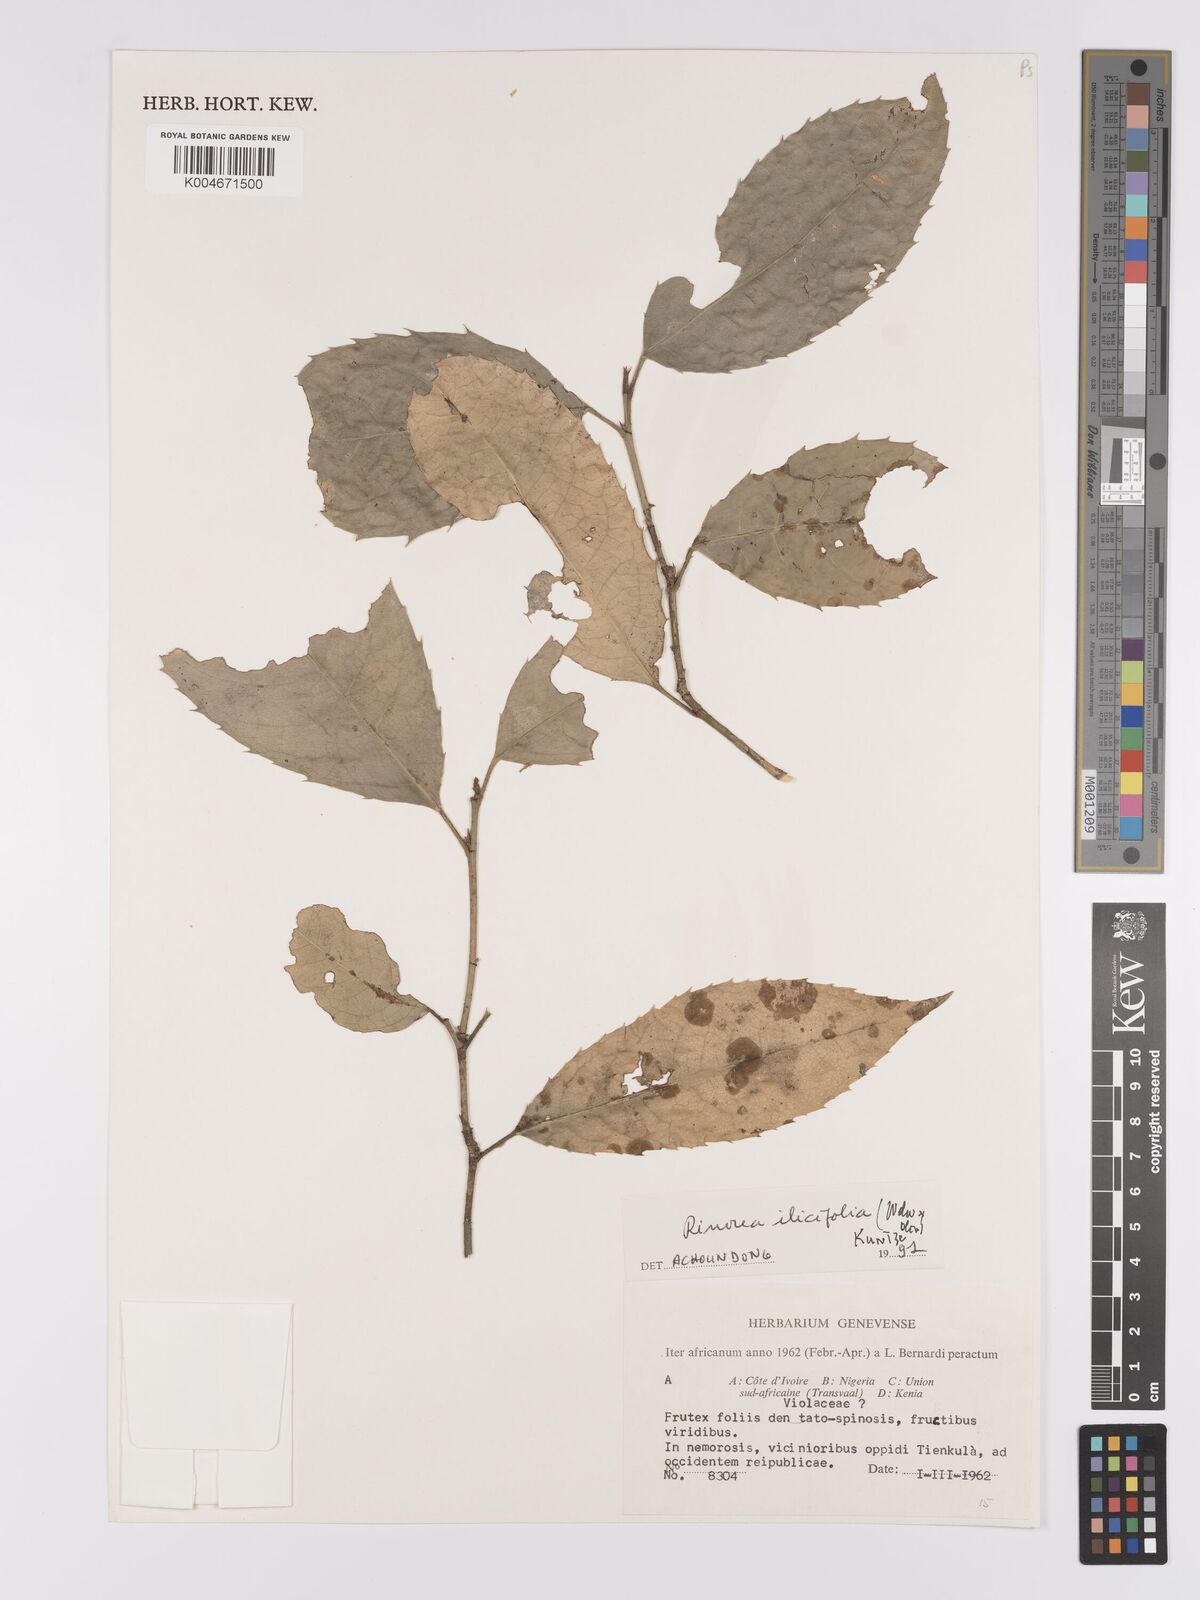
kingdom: Plantae
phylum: Tracheophyta
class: Magnoliopsida
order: Malpighiales
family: Violaceae
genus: Rinorea
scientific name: Rinorea ilicifolia
